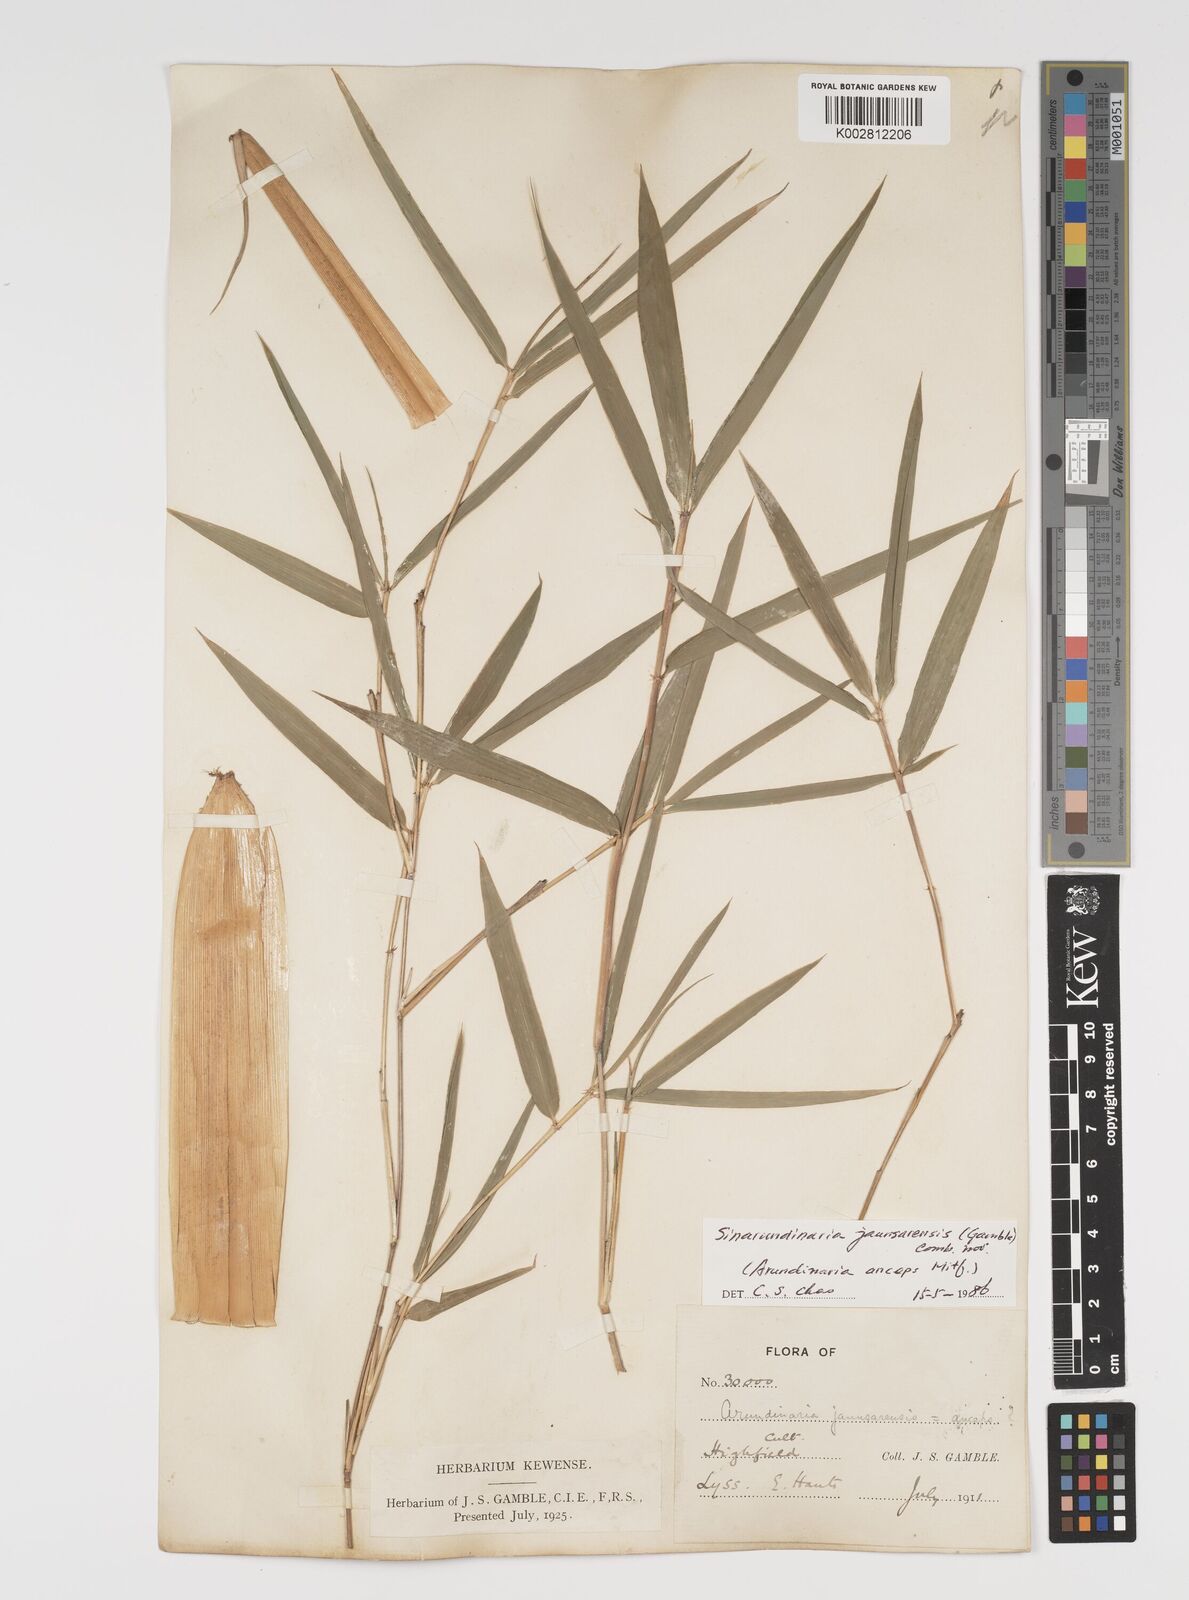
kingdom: Plantae
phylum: Tracheophyta
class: Liliopsida
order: Poales
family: Poaceae
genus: Yushania
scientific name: Yushania anceps
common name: Indian fountain-bamboo
